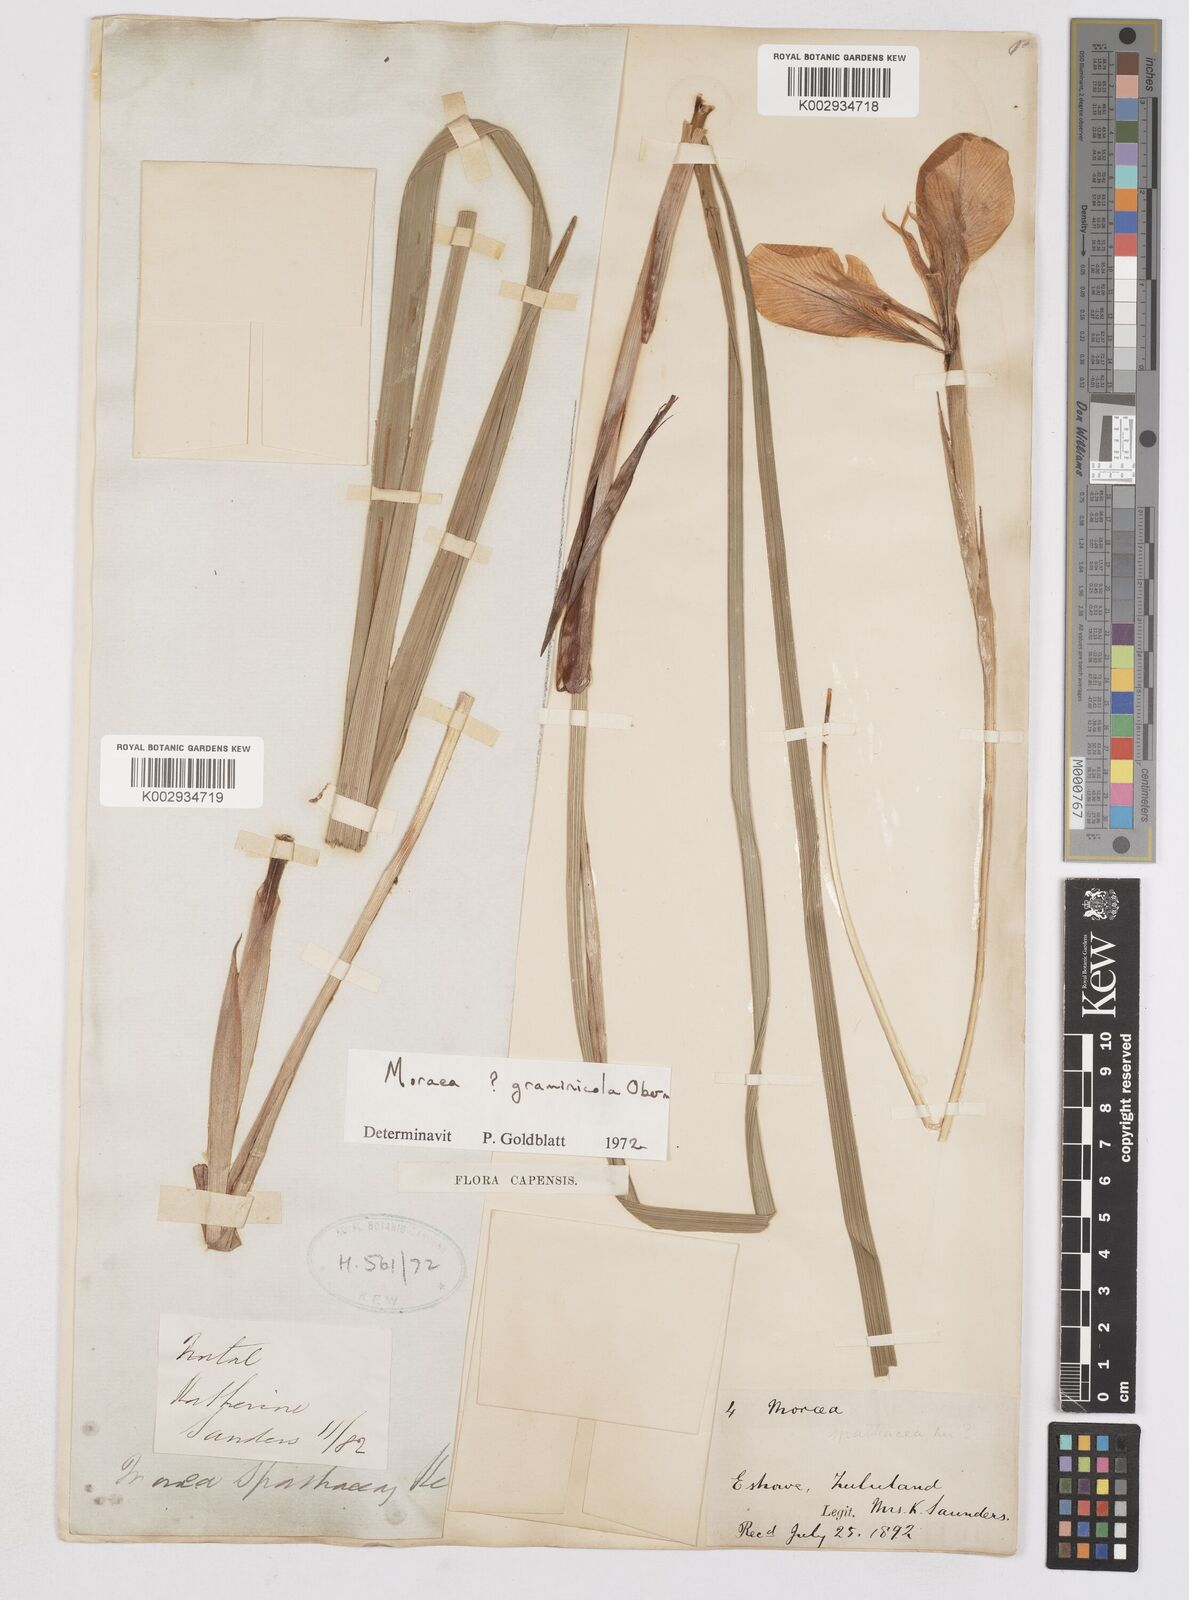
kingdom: Plantae
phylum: Tracheophyta
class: Liliopsida
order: Asparagales
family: Iridaceae
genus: Moraea
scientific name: Moraea graminicola
